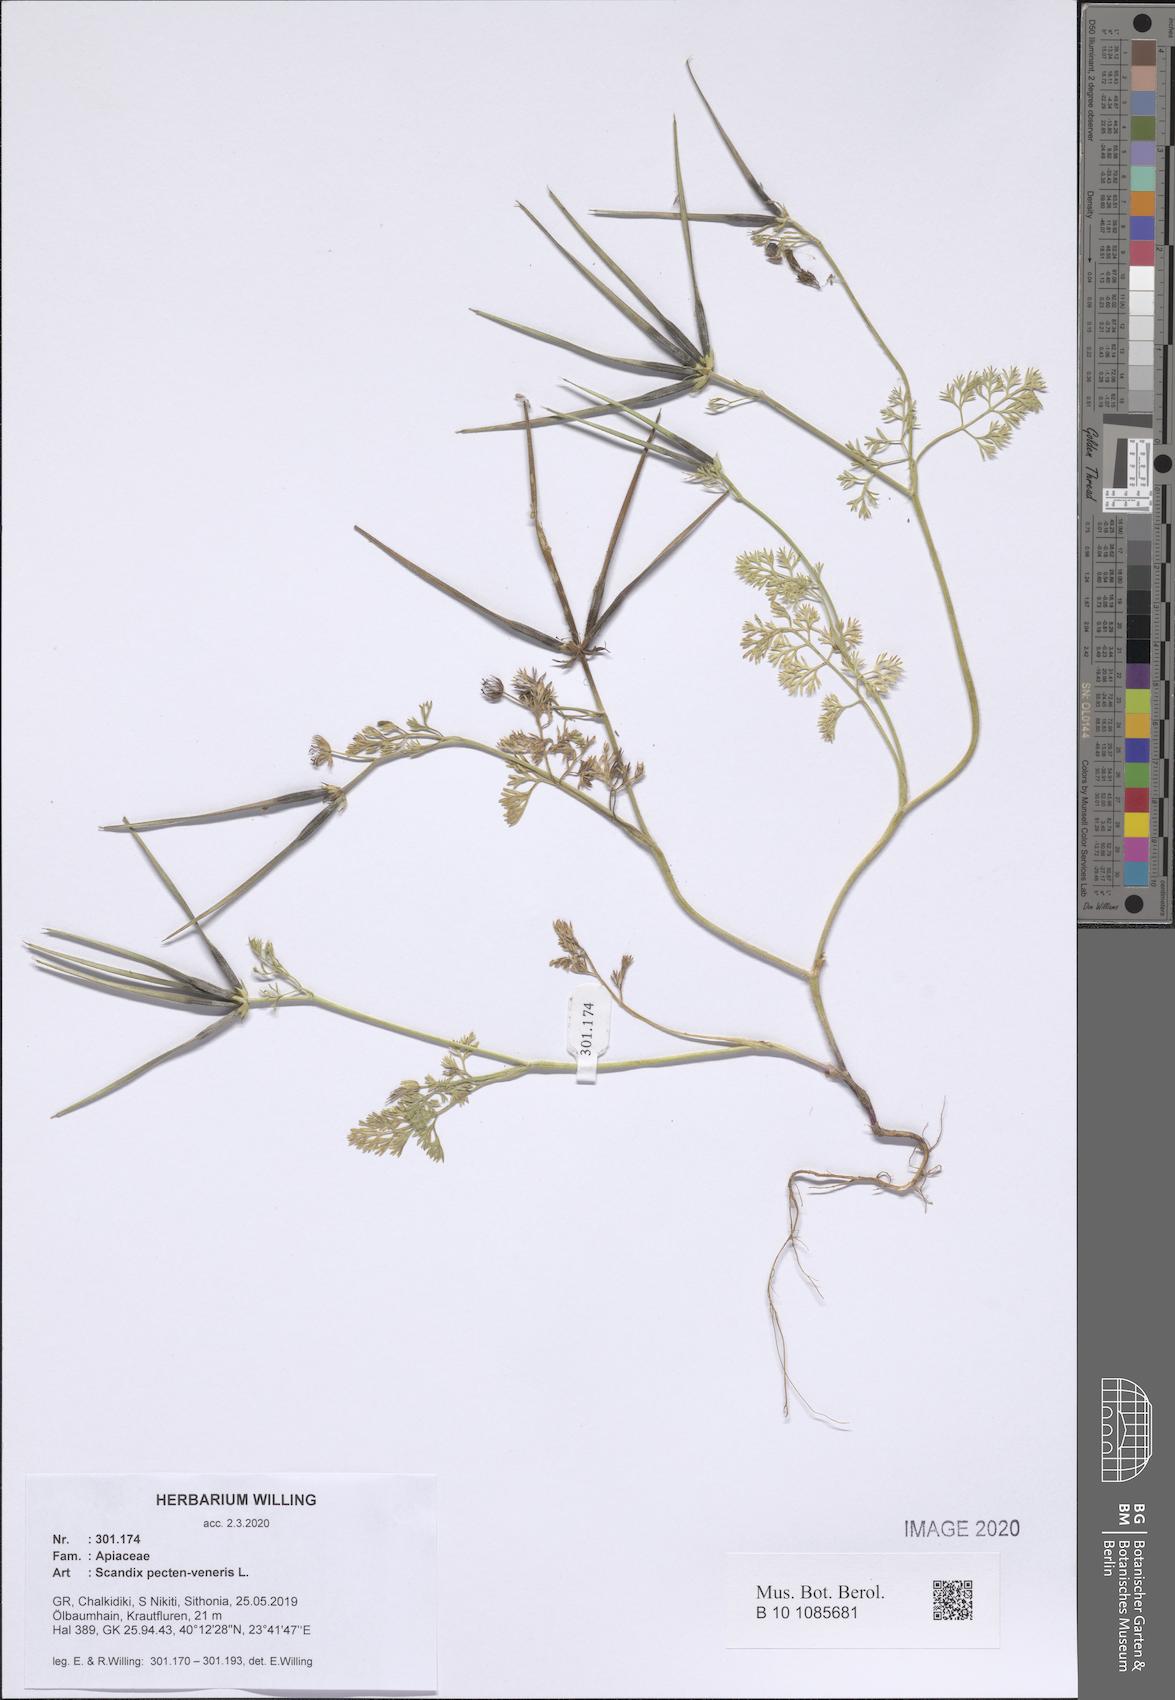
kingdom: Plantae
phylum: Tracheophyta
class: Magnoliopsida
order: Apiales
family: Apiaceae
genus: Scandix
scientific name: Scandix pecten-veneris
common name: Shepherd's-needle
